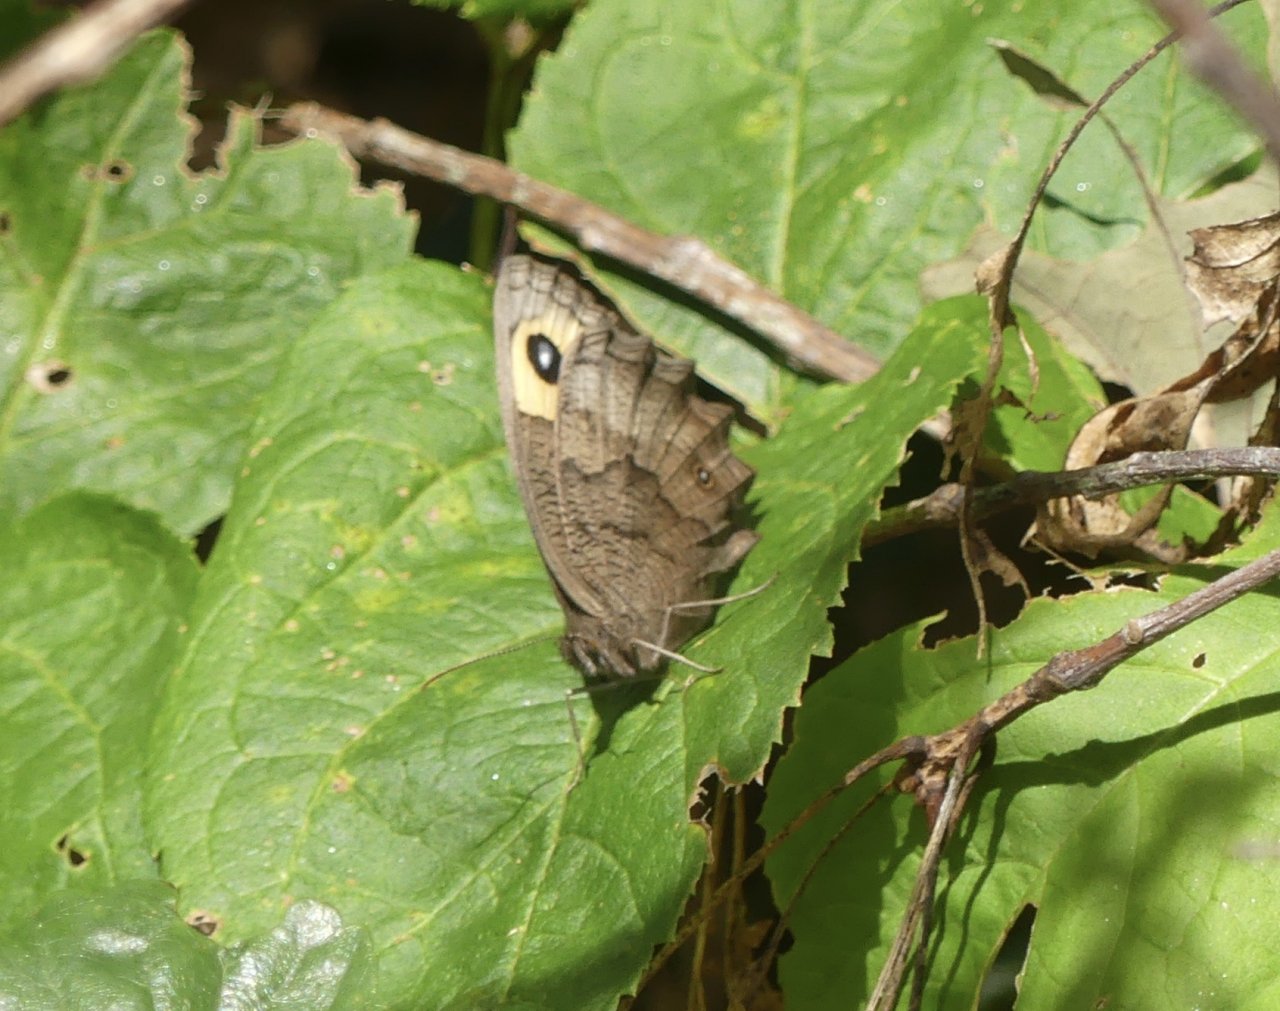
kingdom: Animalia
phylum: Arthropoda
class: Insecta
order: Lepidoptera
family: Nymphalidae
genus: Cercyonis
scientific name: Cercyonis pegala
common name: Common Wood-Nymph
